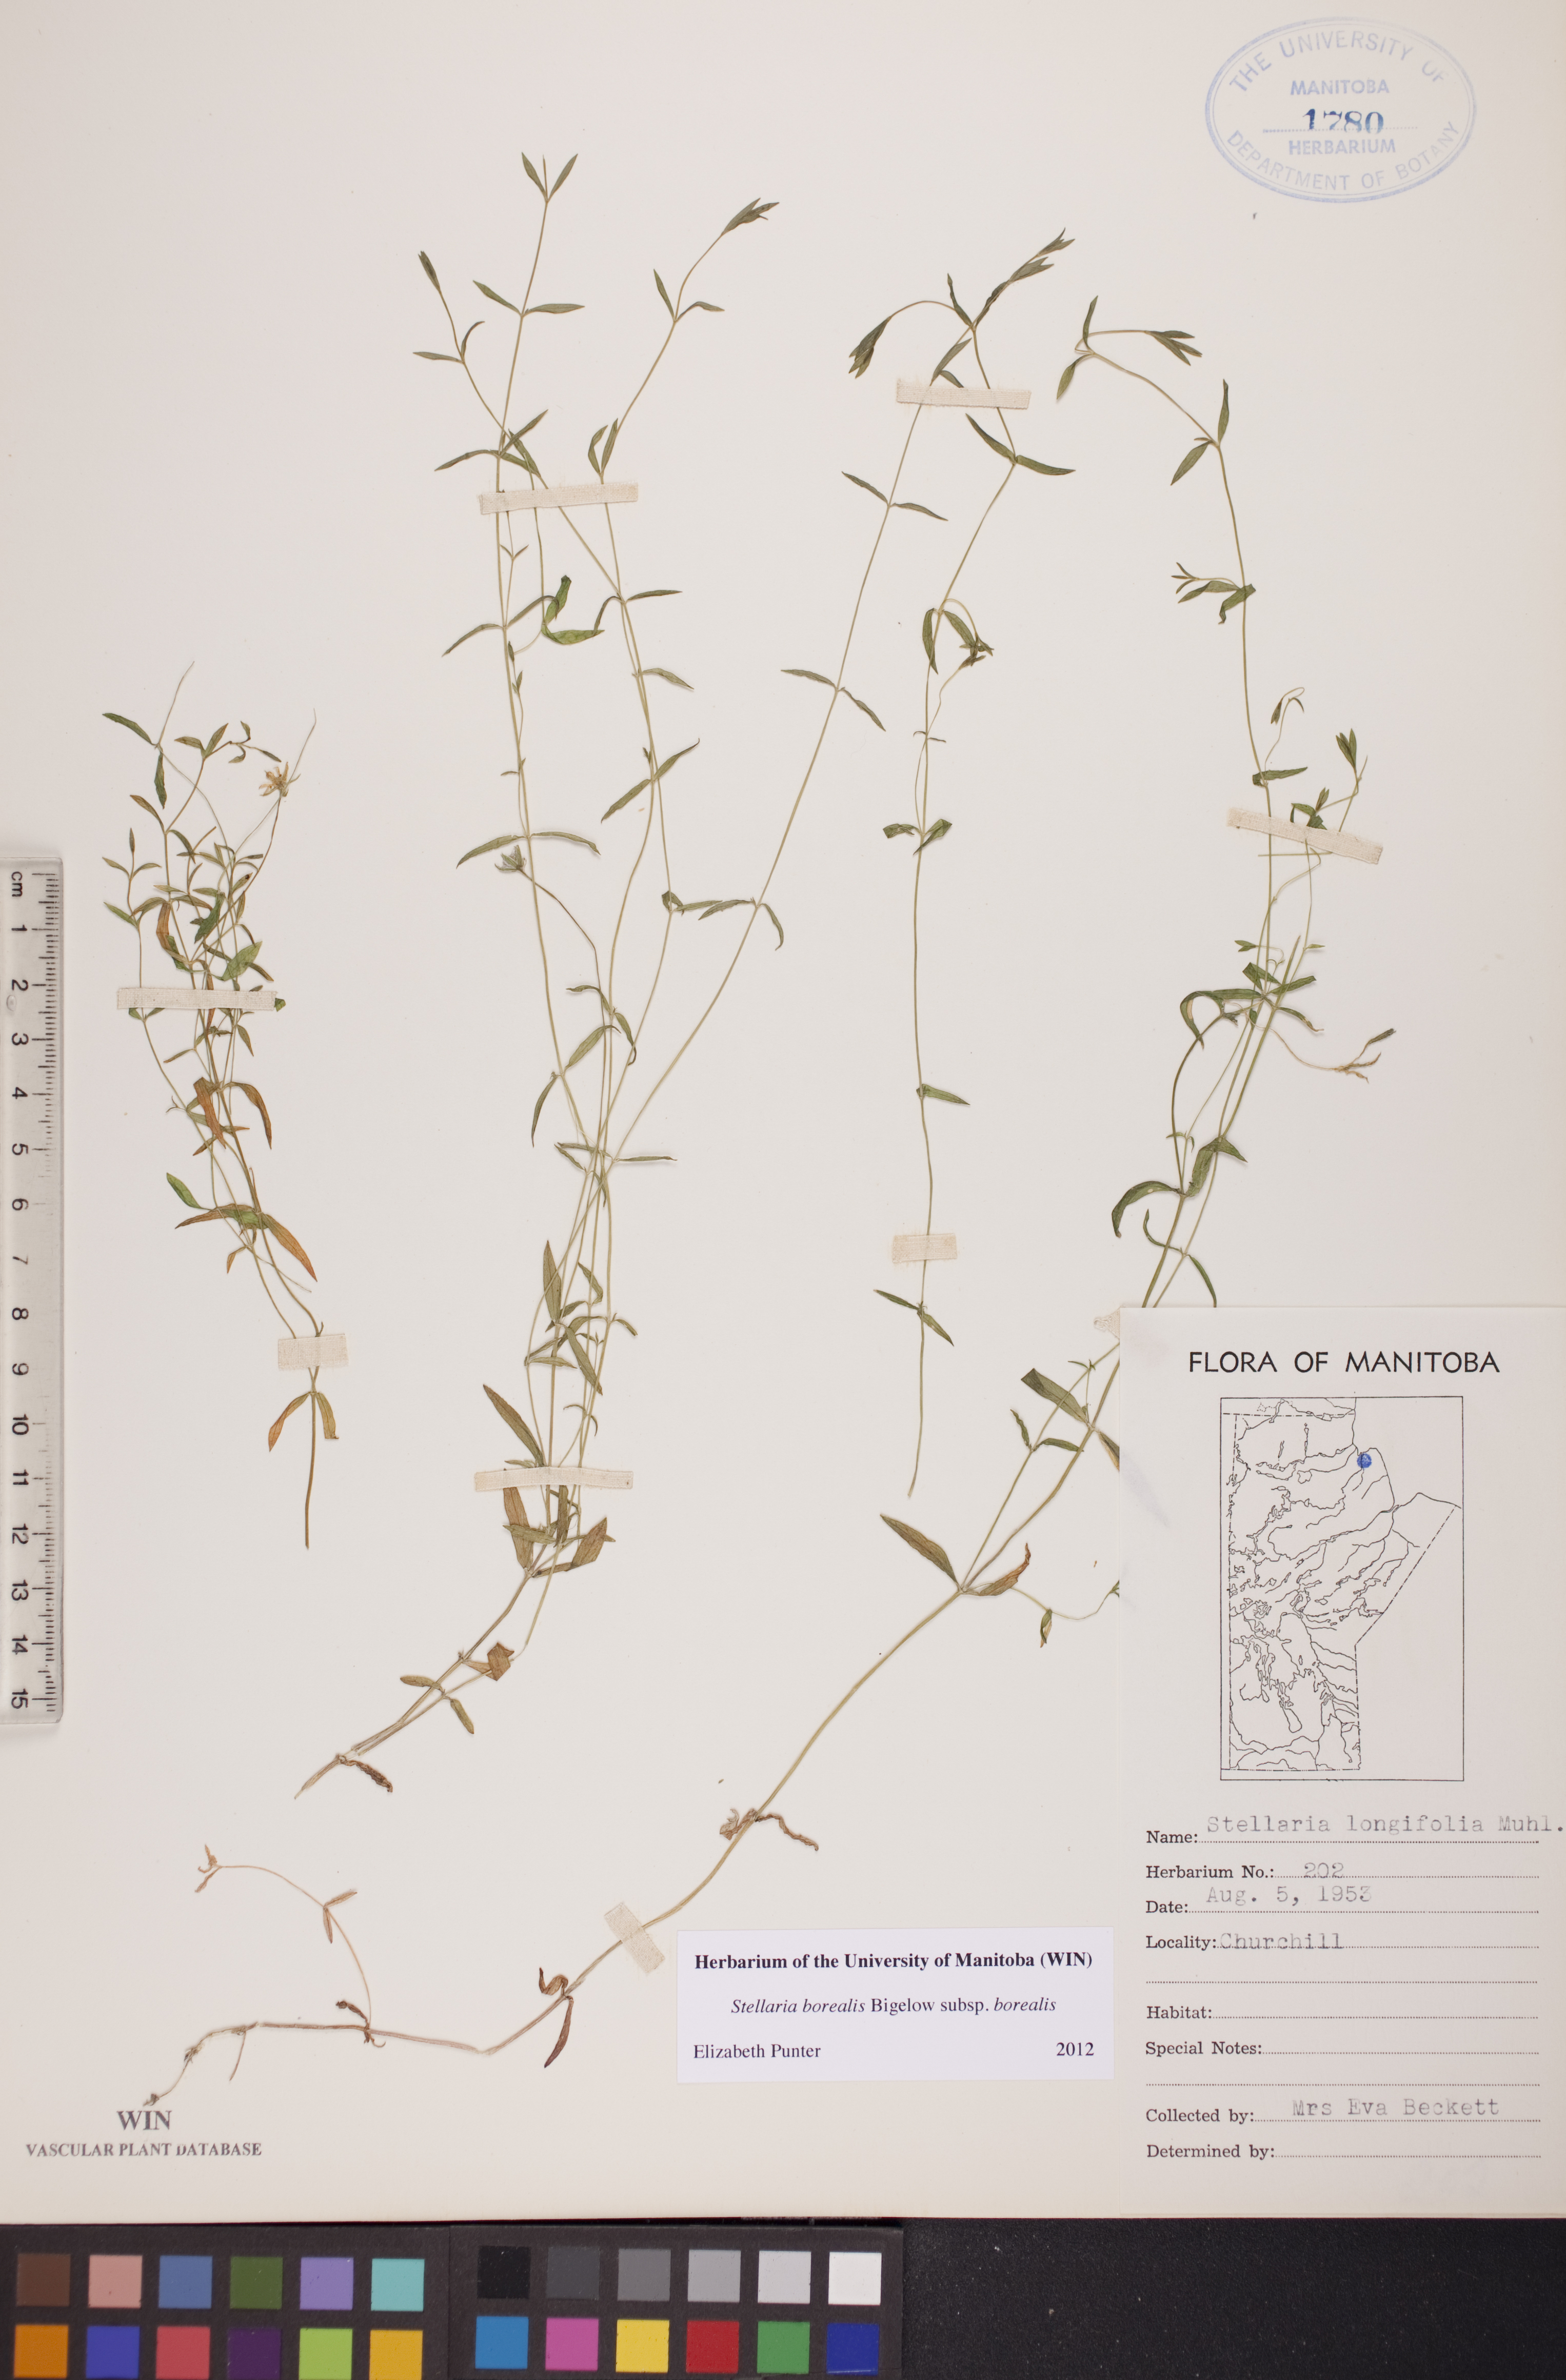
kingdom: Plantae
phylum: Tracheophyta
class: Magnoliopsida
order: Caryophyllales
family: Caryophyllaceae
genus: Stellaria
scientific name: Stellaria borealis
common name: Boreal starwort
